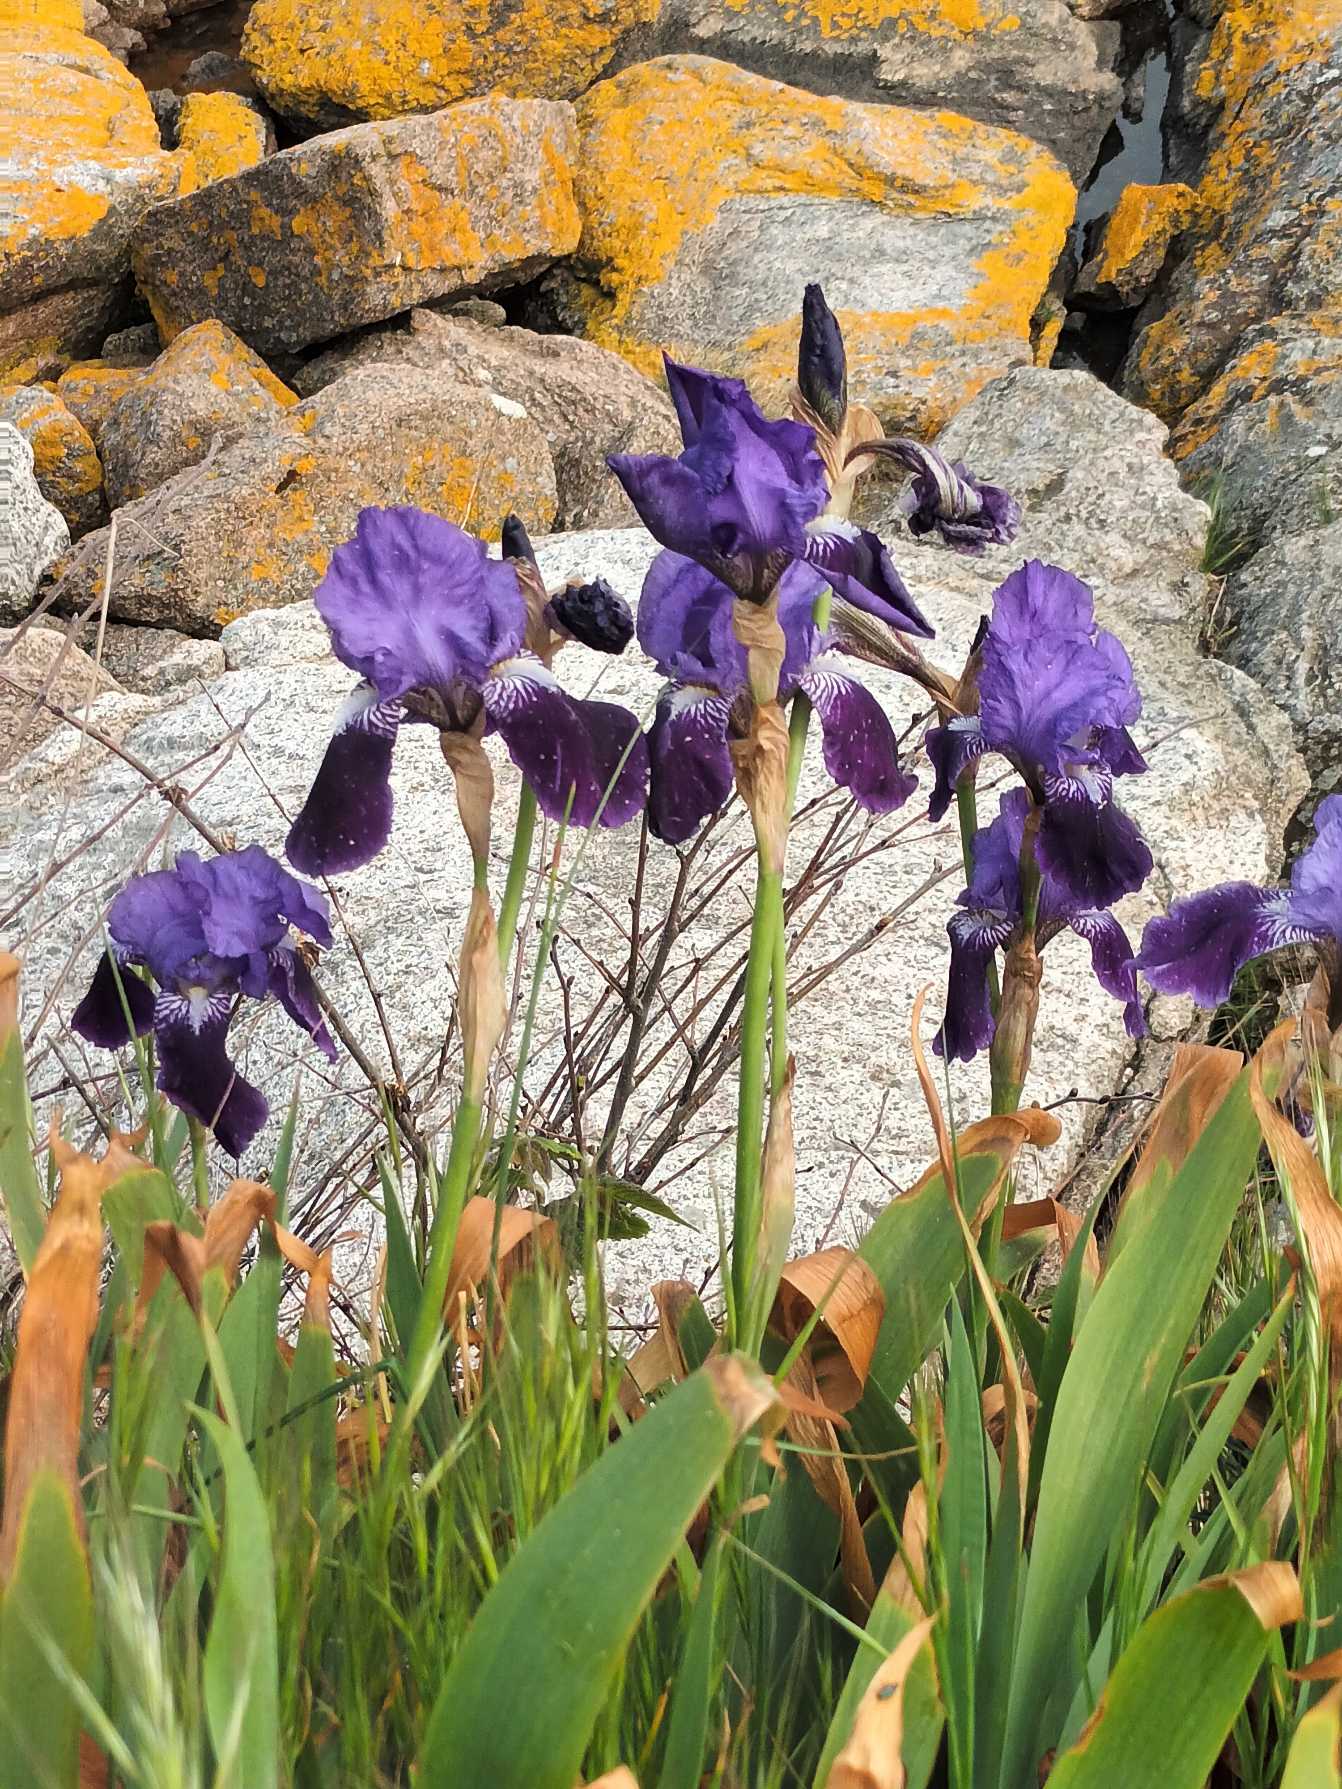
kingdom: Plantae
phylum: Tracheophyta
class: Liliopsida
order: Asparagales
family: Iridaceae
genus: Iris
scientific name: Iris germanica
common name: Have-iris
